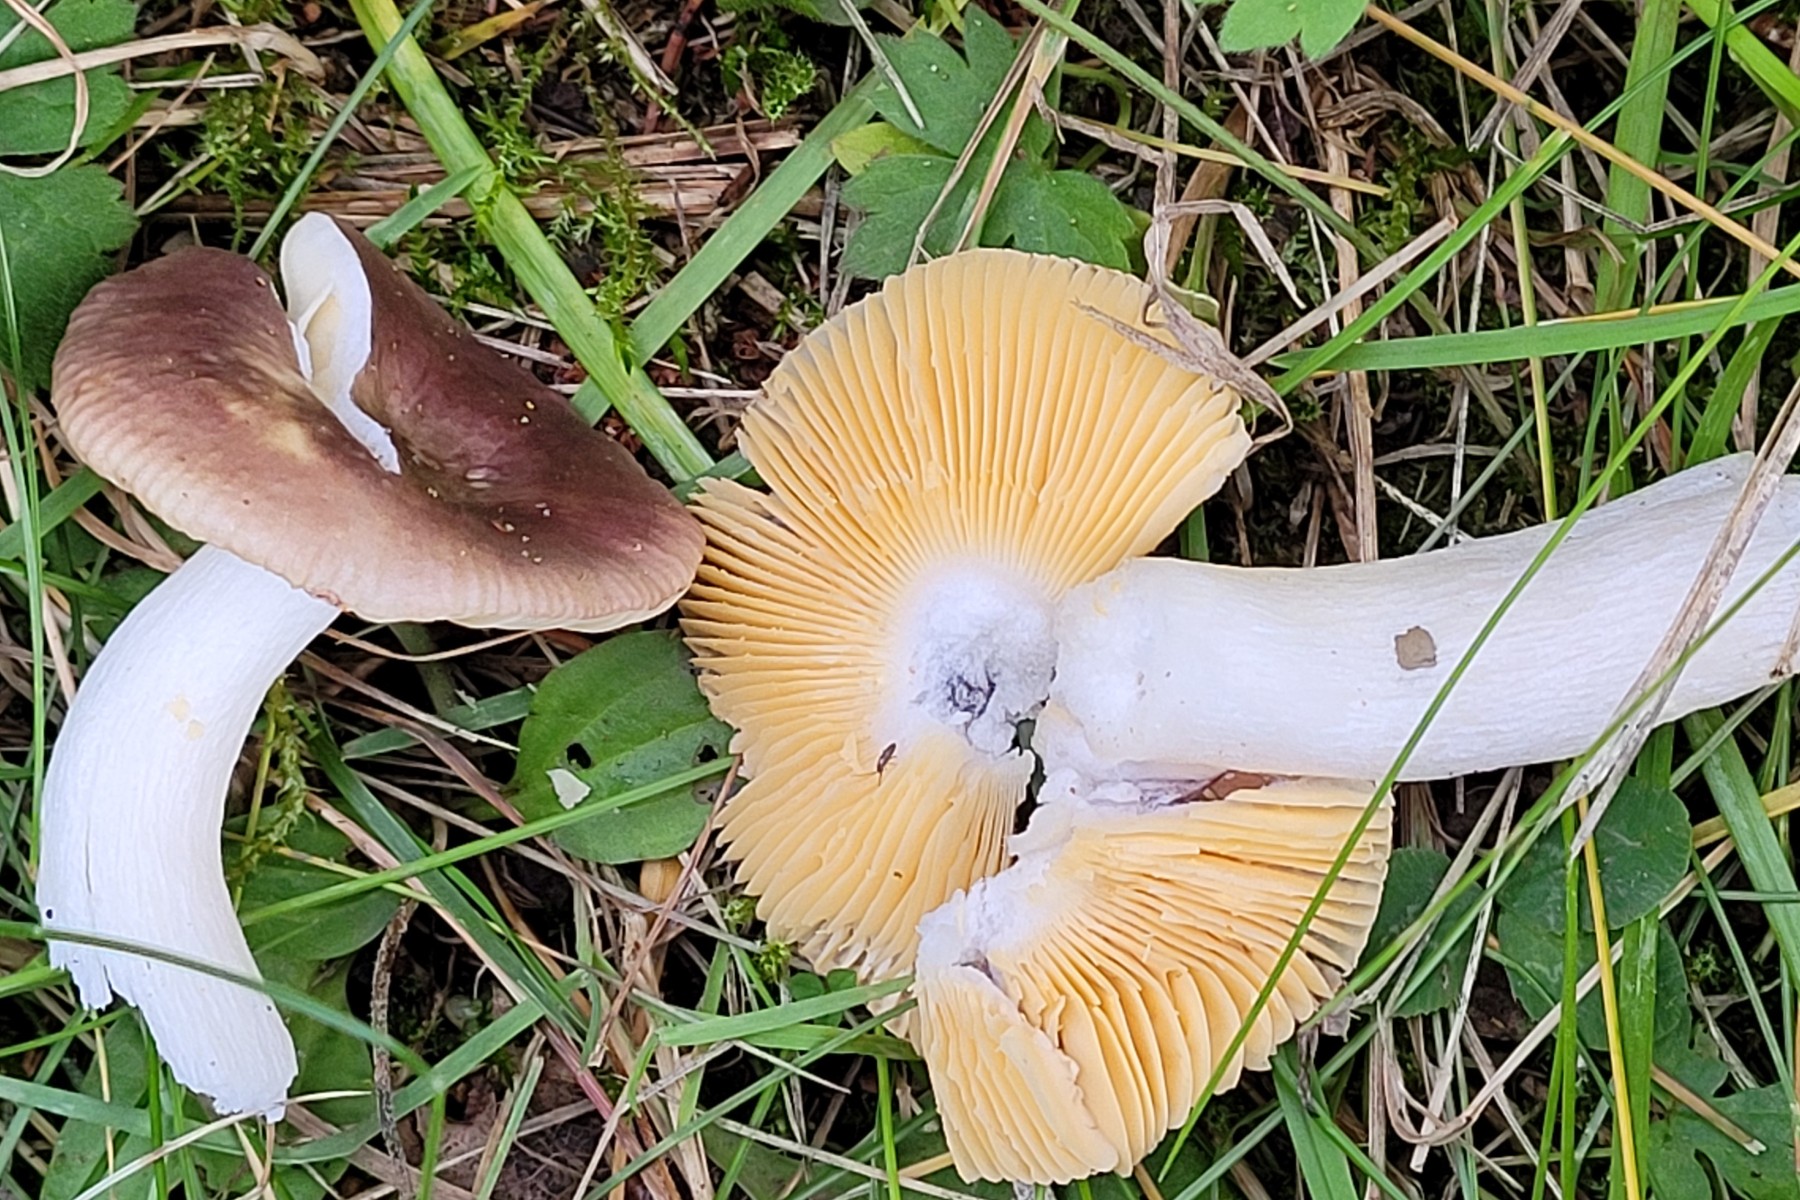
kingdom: Fungi
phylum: Basidiomycota
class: Agaricomycetes
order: Russulales
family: Russulaceae
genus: Russula
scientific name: Russula nauseosa
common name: spinkel skørhat
